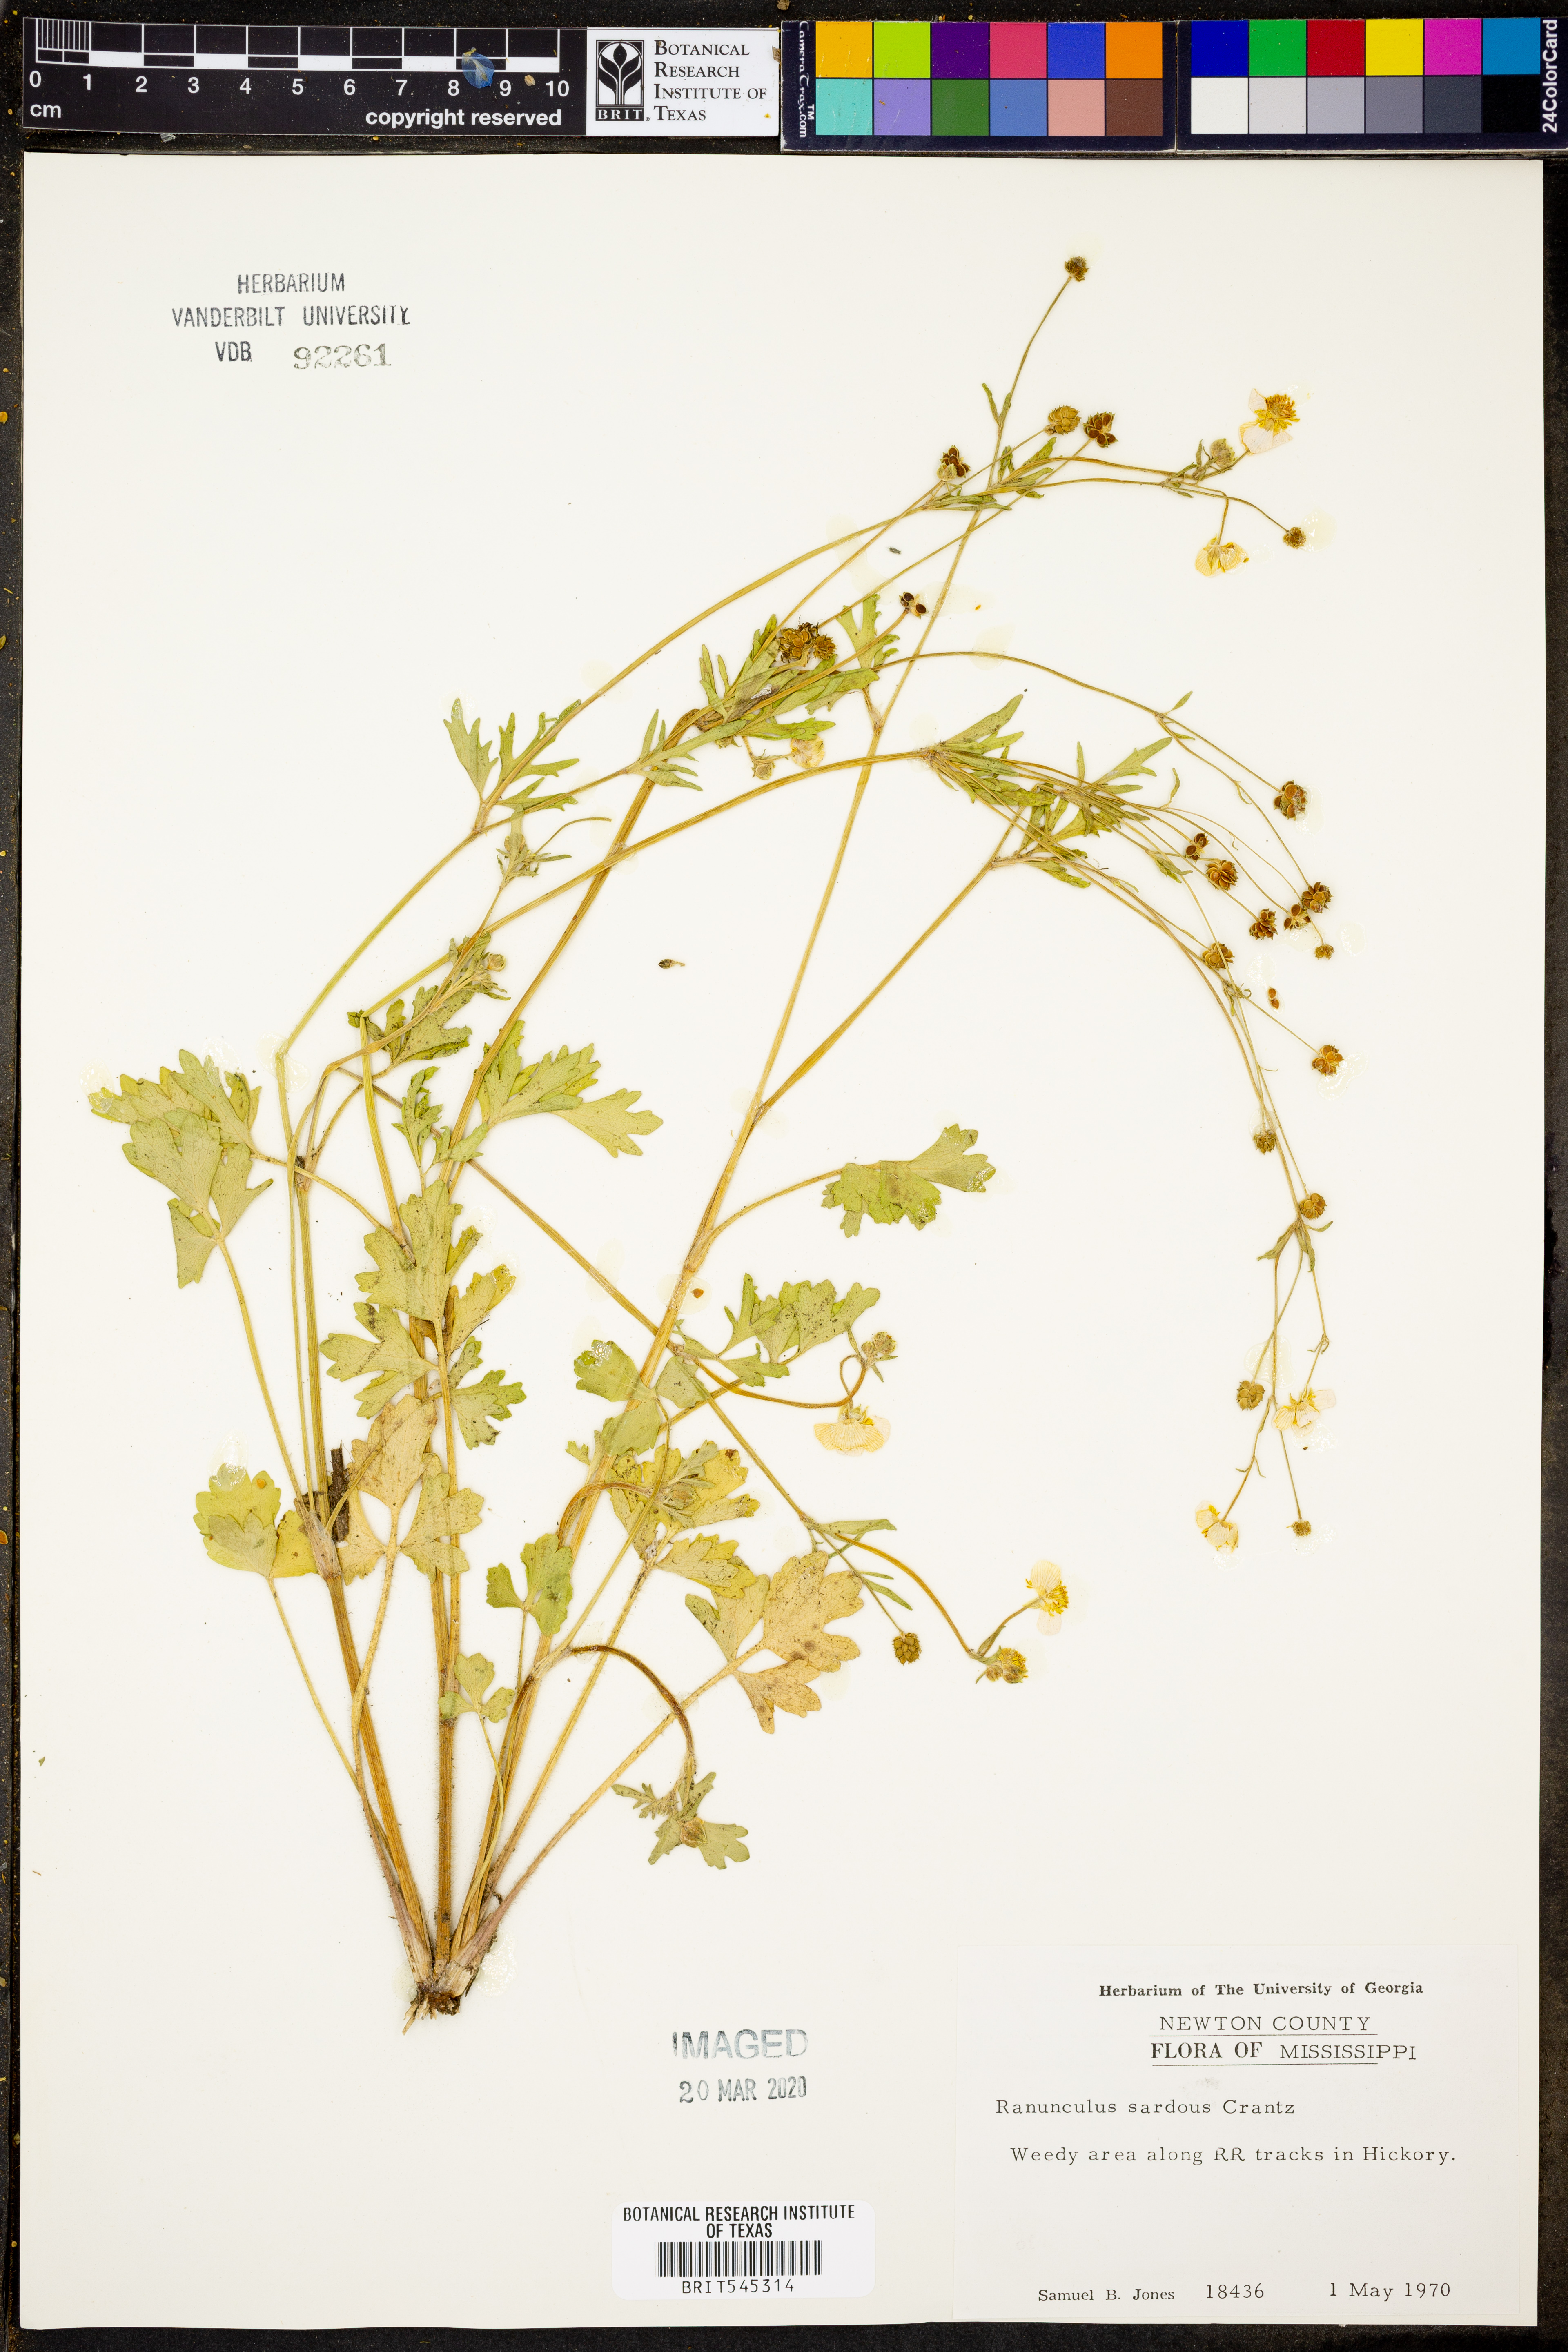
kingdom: Plantae
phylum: Tracheophyta
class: Magnoliopsida
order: Ranunculales
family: Ranunculaceae
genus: Ranunculus
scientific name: Ranunculus sardous
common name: Hairy buttercup
